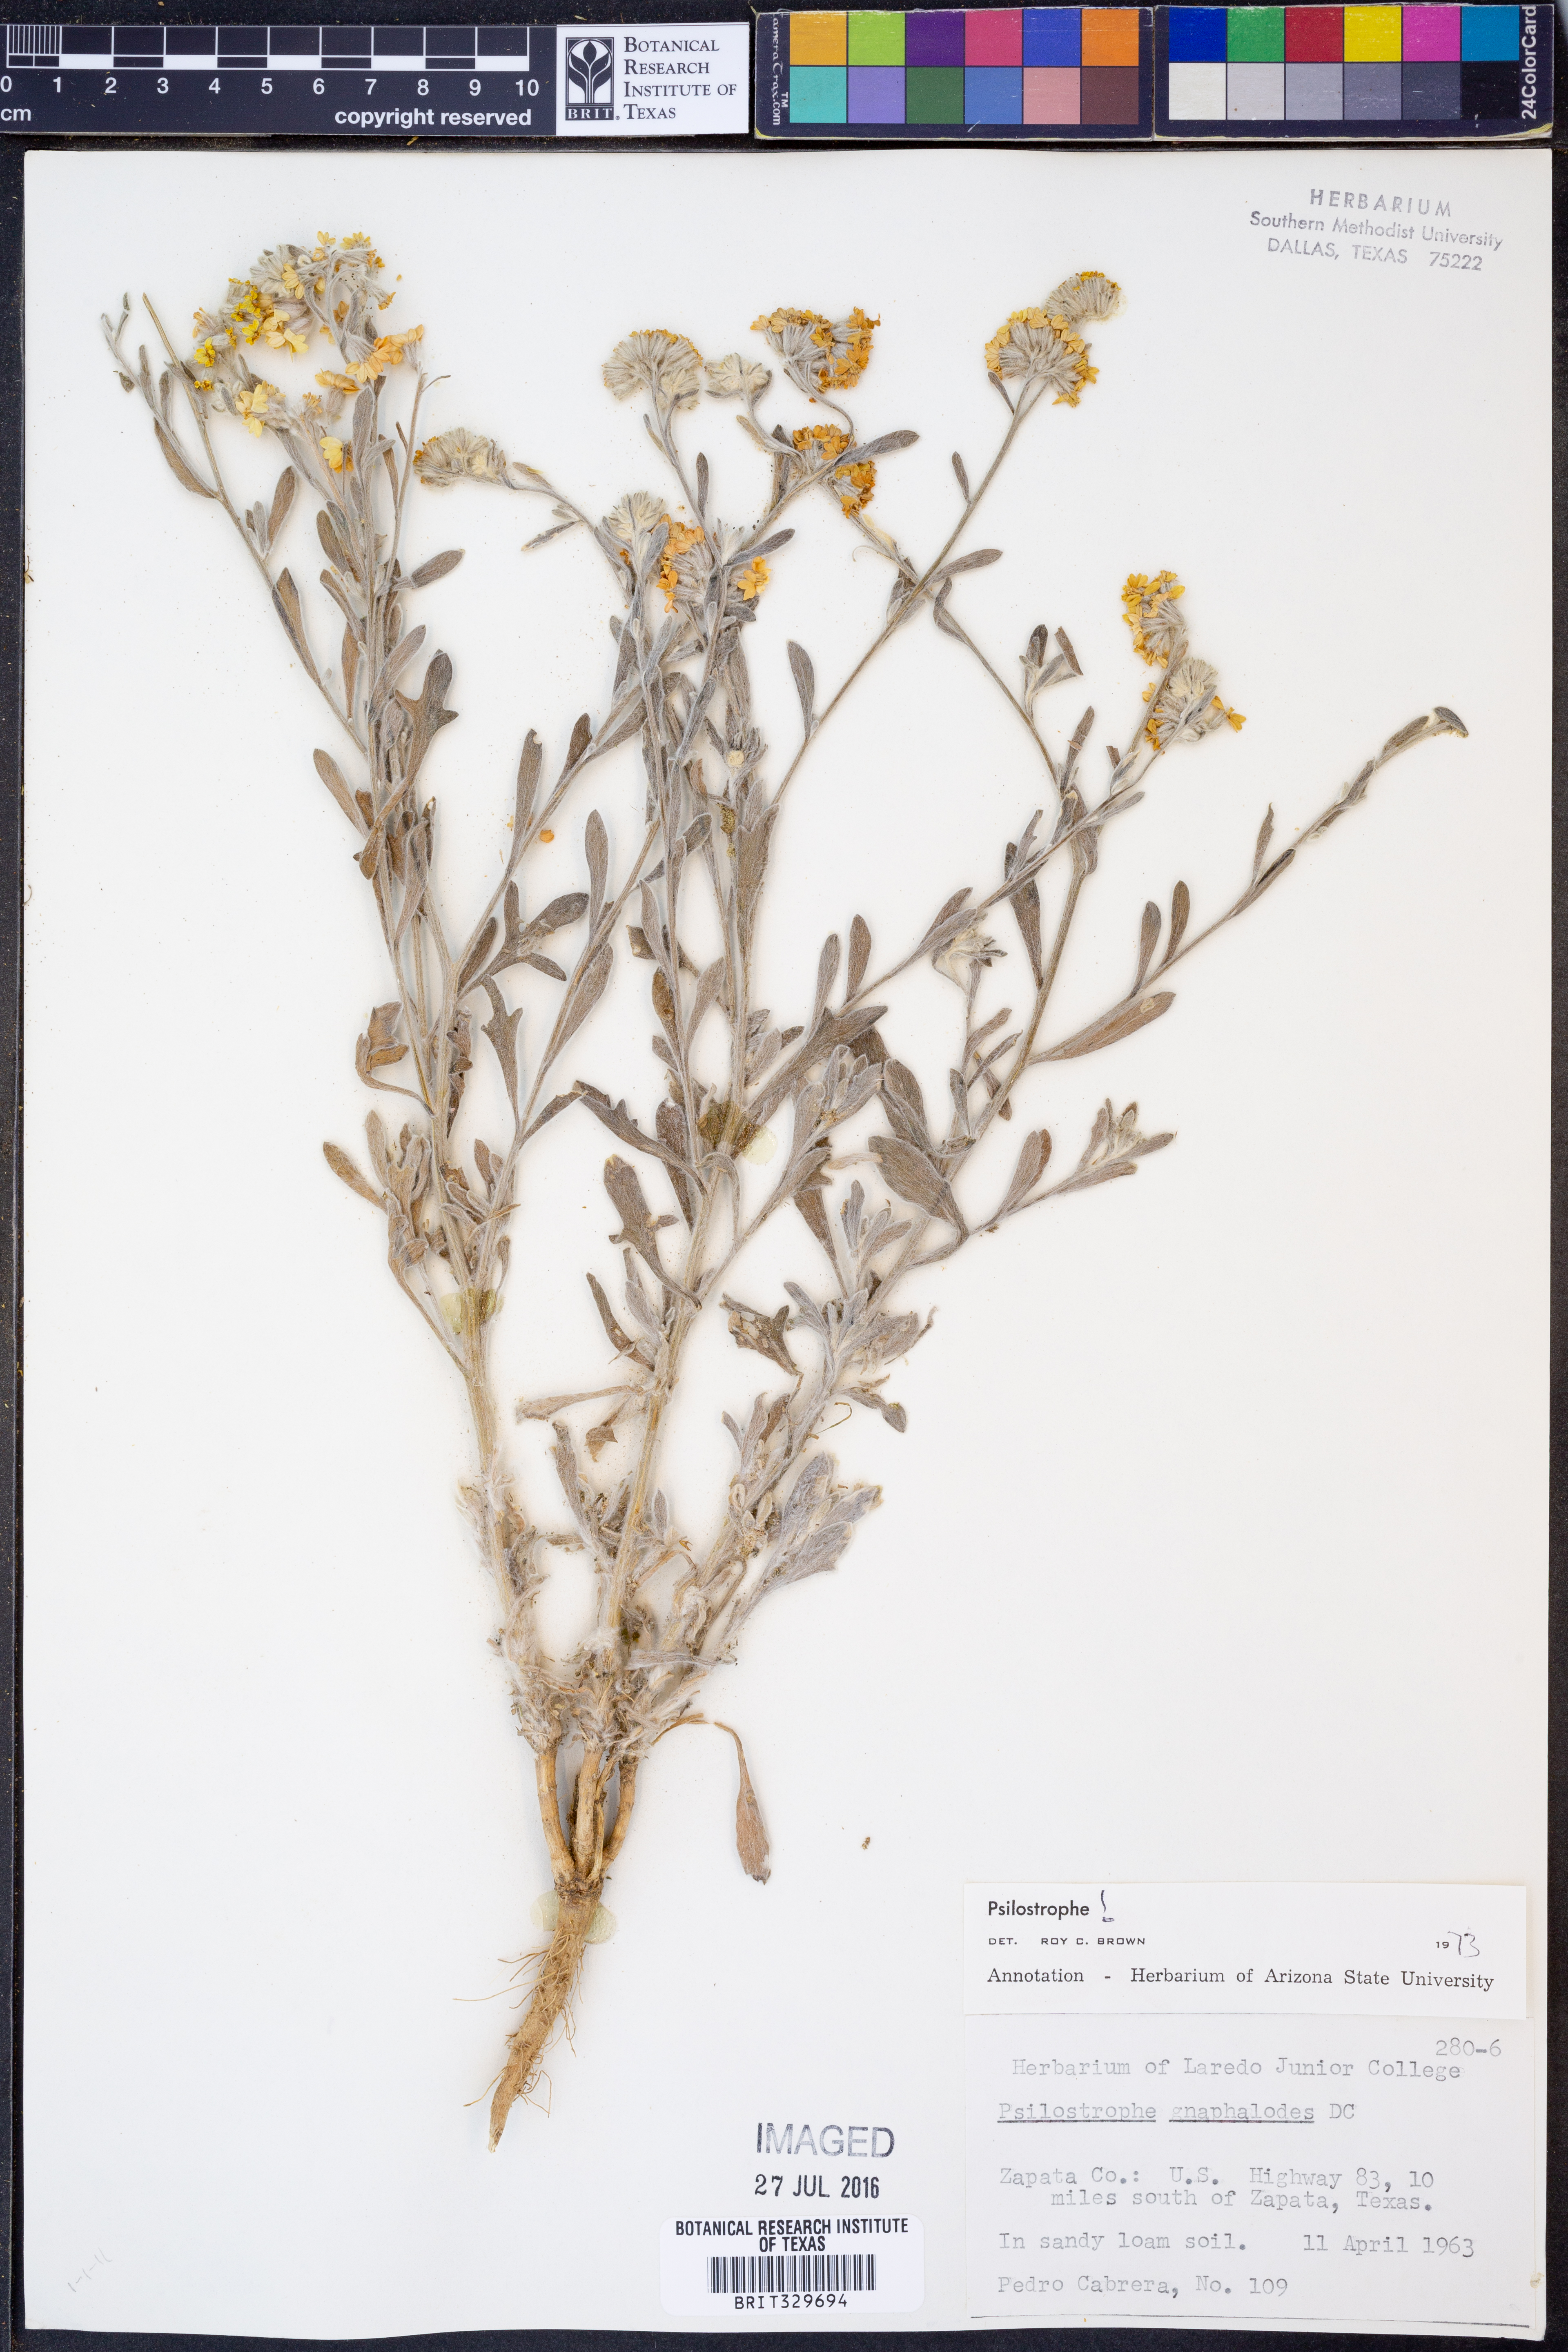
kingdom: Plantae
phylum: Tracheophyta
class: Magnoliopsida
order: Asterales
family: Asteraceae
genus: Psilostrophe
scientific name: Psilostrophe gnaphalioides
